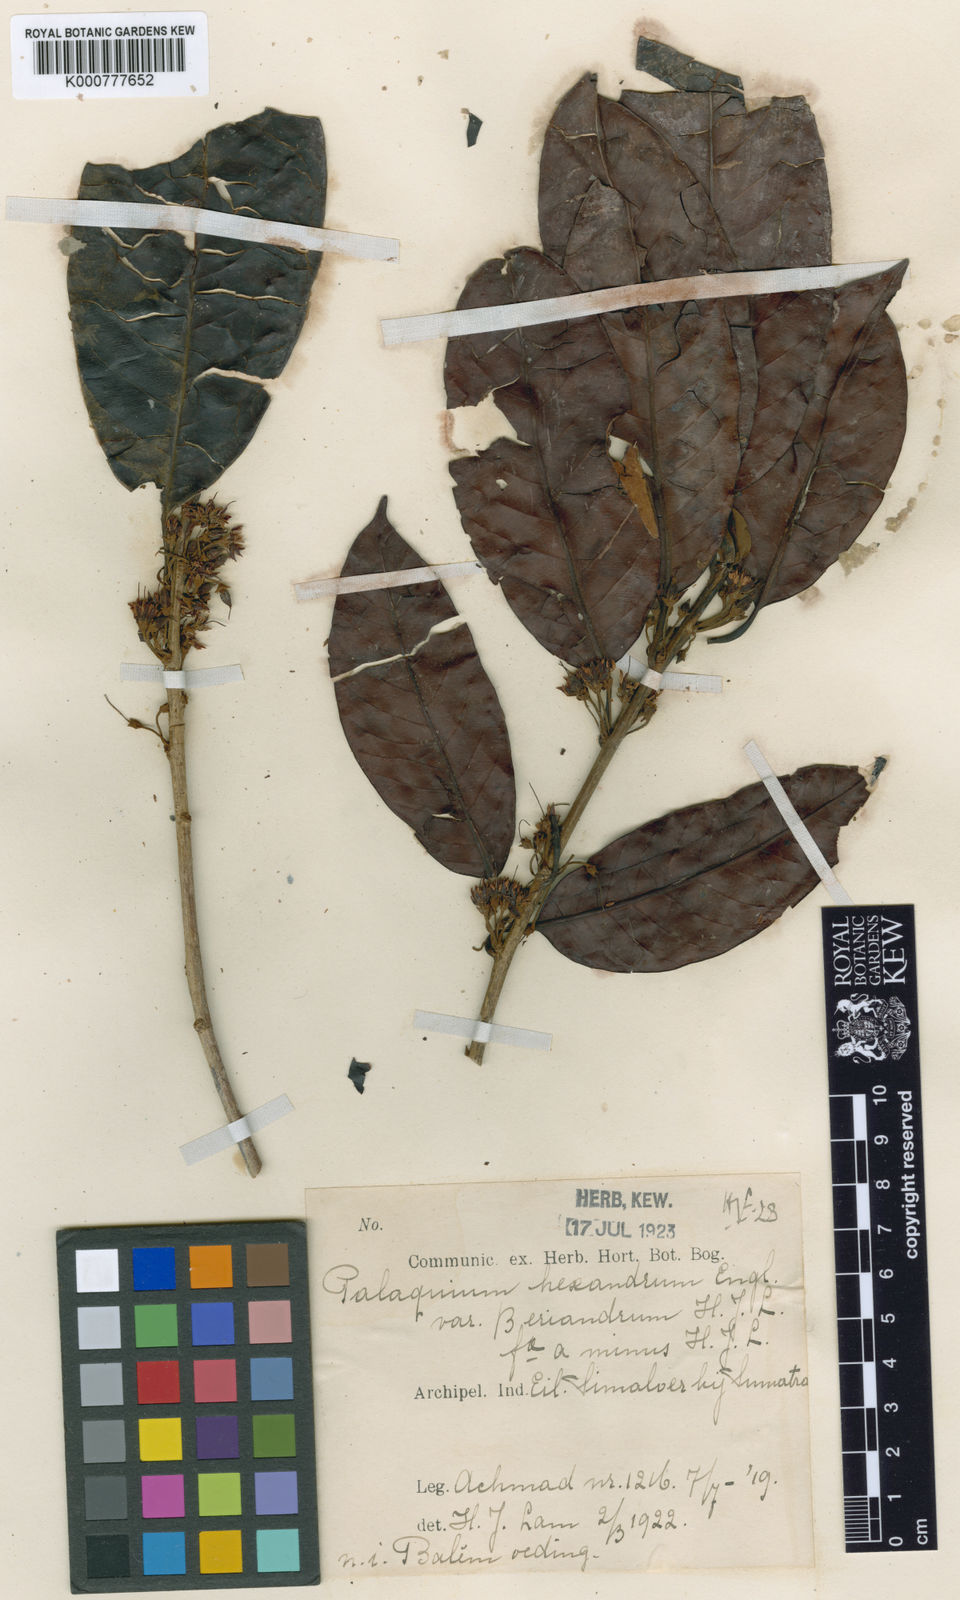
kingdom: Plantae
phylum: Tracheophyta
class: Magnoliopsida
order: Ericales
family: Sapotaceae
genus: Palaquium
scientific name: Palaquium hexandrum
